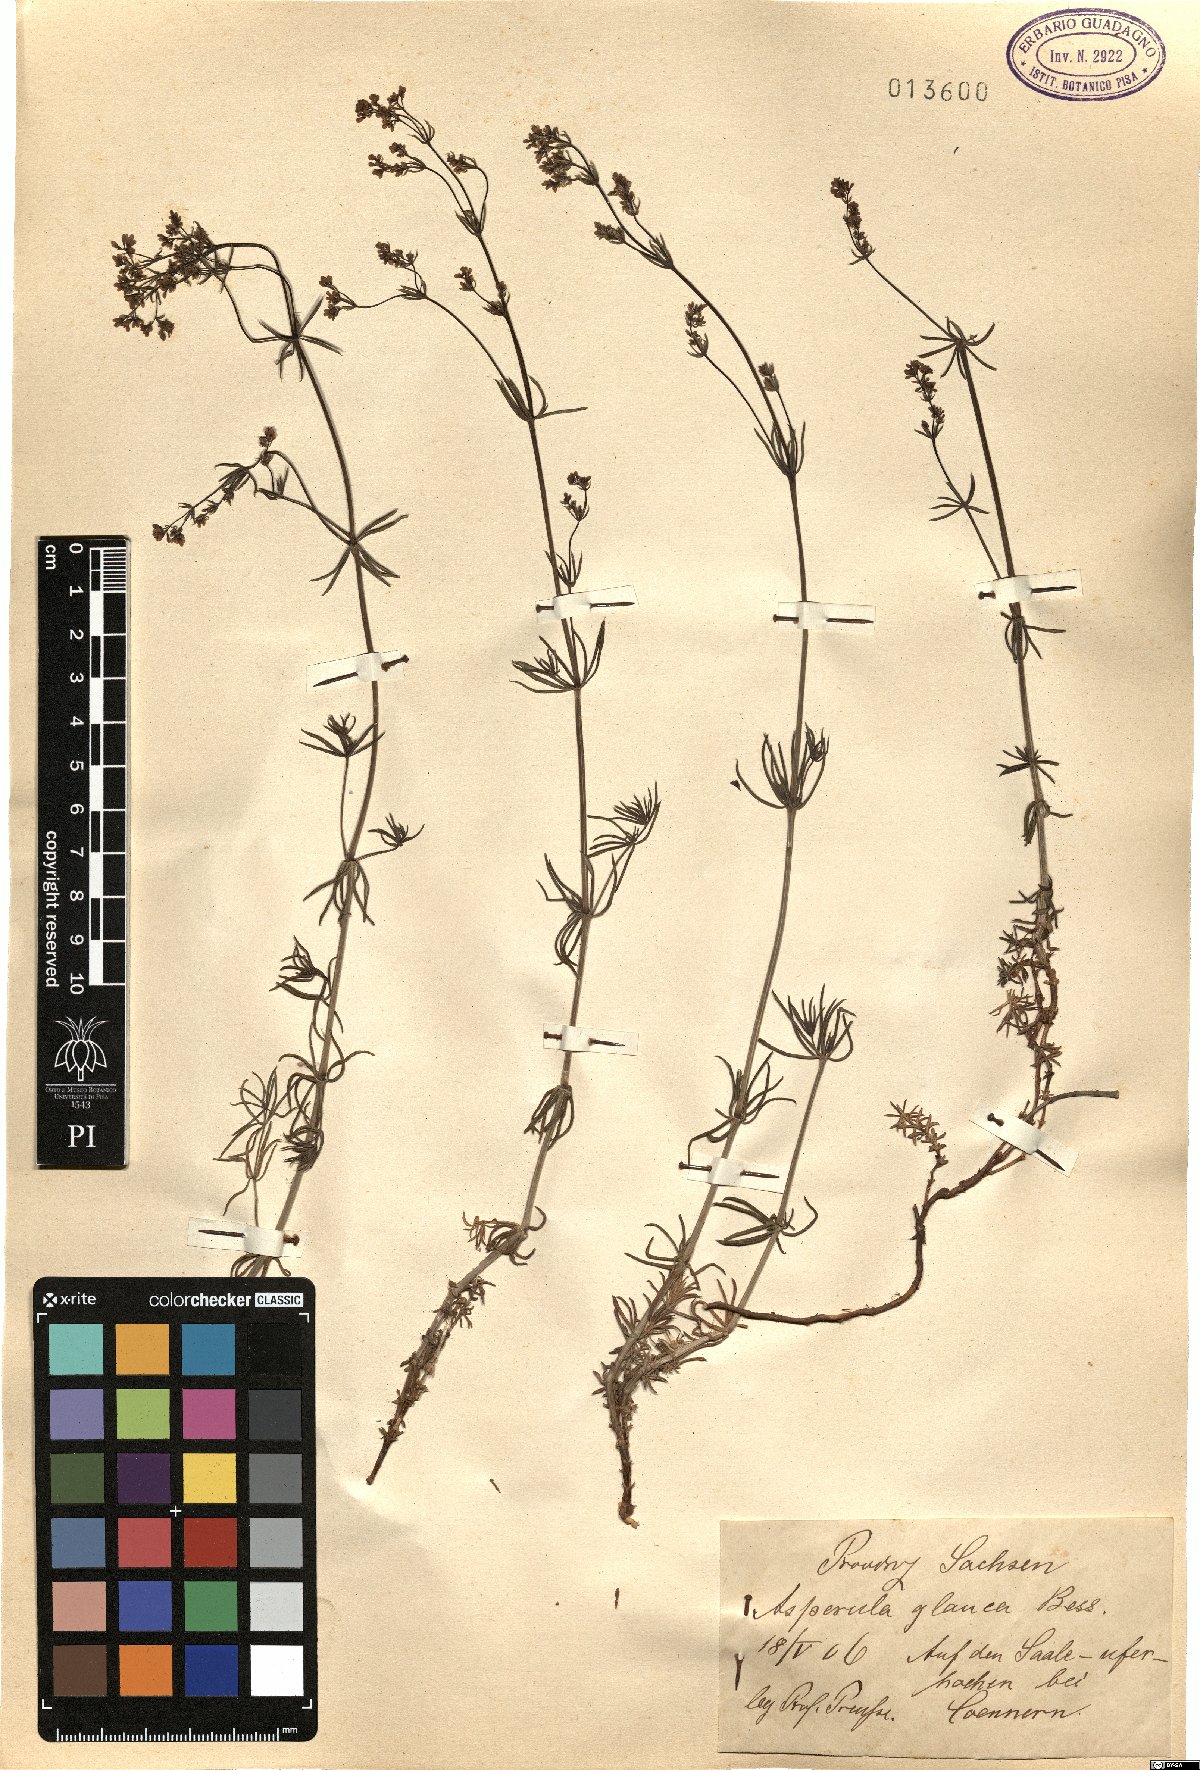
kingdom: Plantae
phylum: Tracheophyta
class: Magnoliopsida
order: Gentianales
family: Rubiaceae
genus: Galium
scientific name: Galium glaucum
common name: Waxy bedstraw
